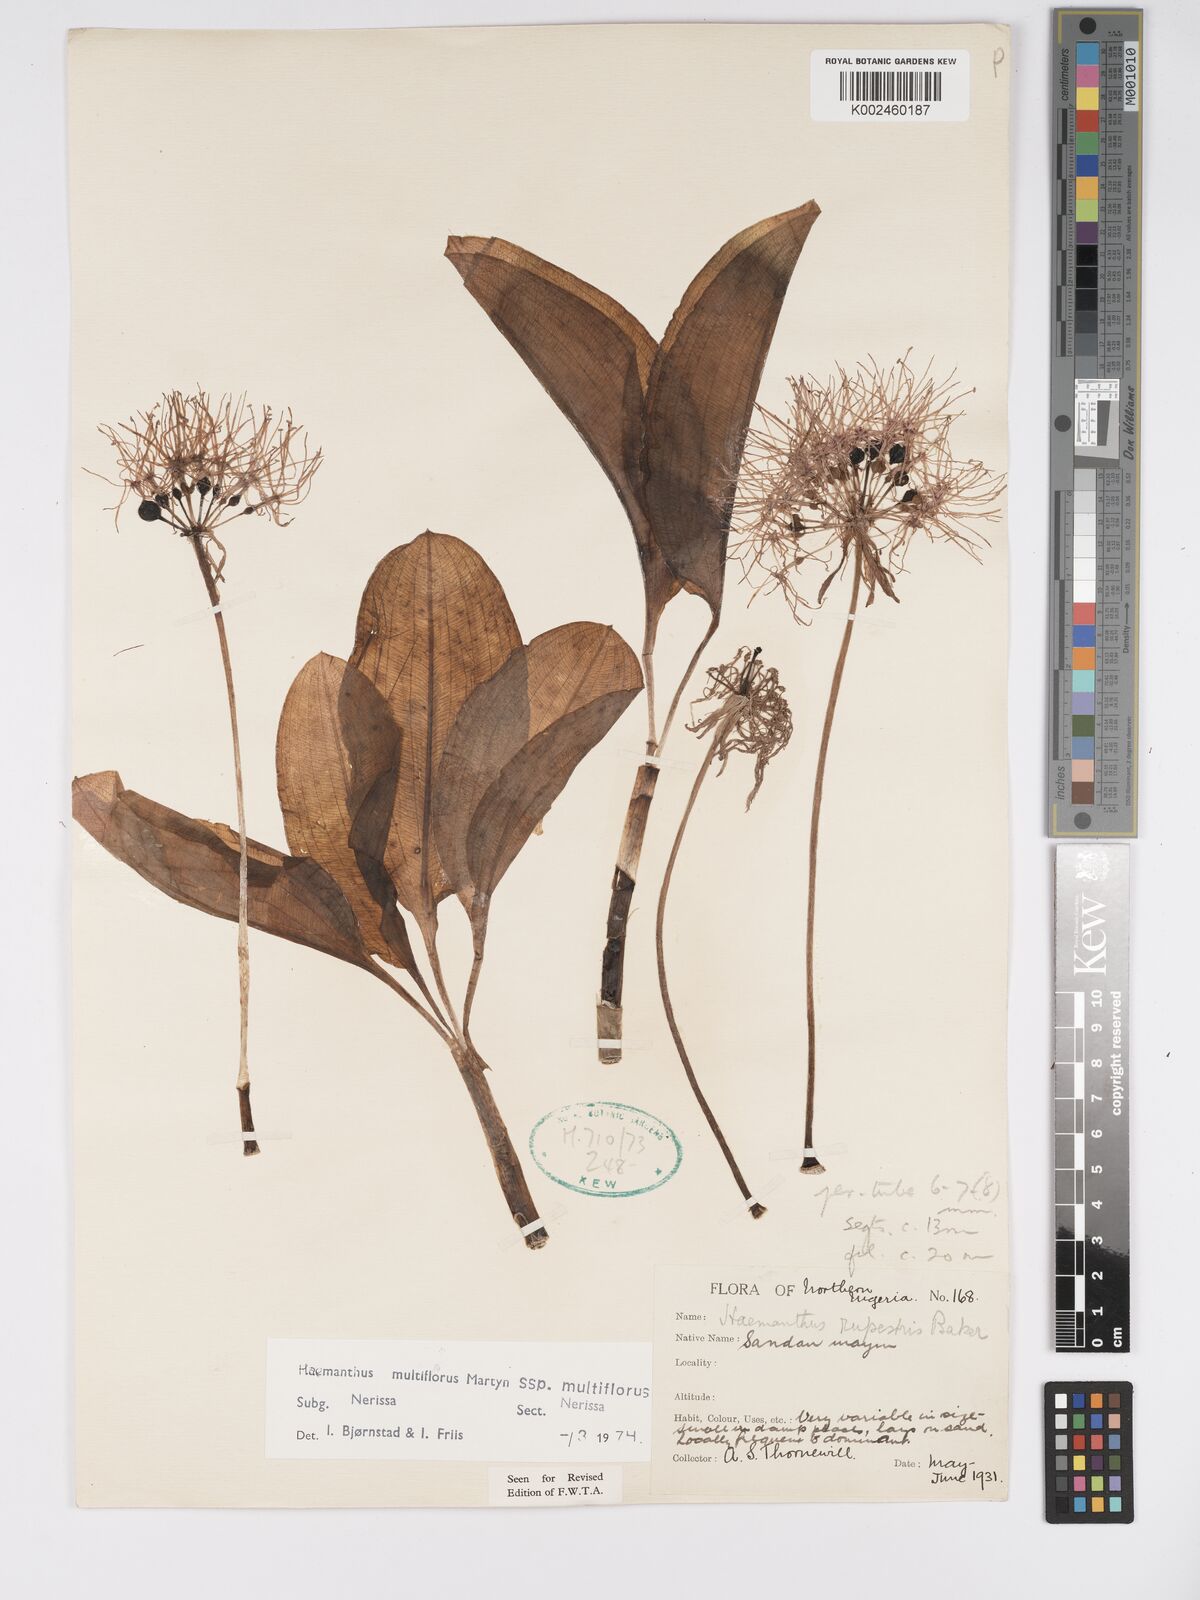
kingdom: Plantae
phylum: Tracheophyta
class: Liliopsida
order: Asparagales
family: Amaryllidaceae
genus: Scadoxus
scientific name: Scadoxus multiflorus
